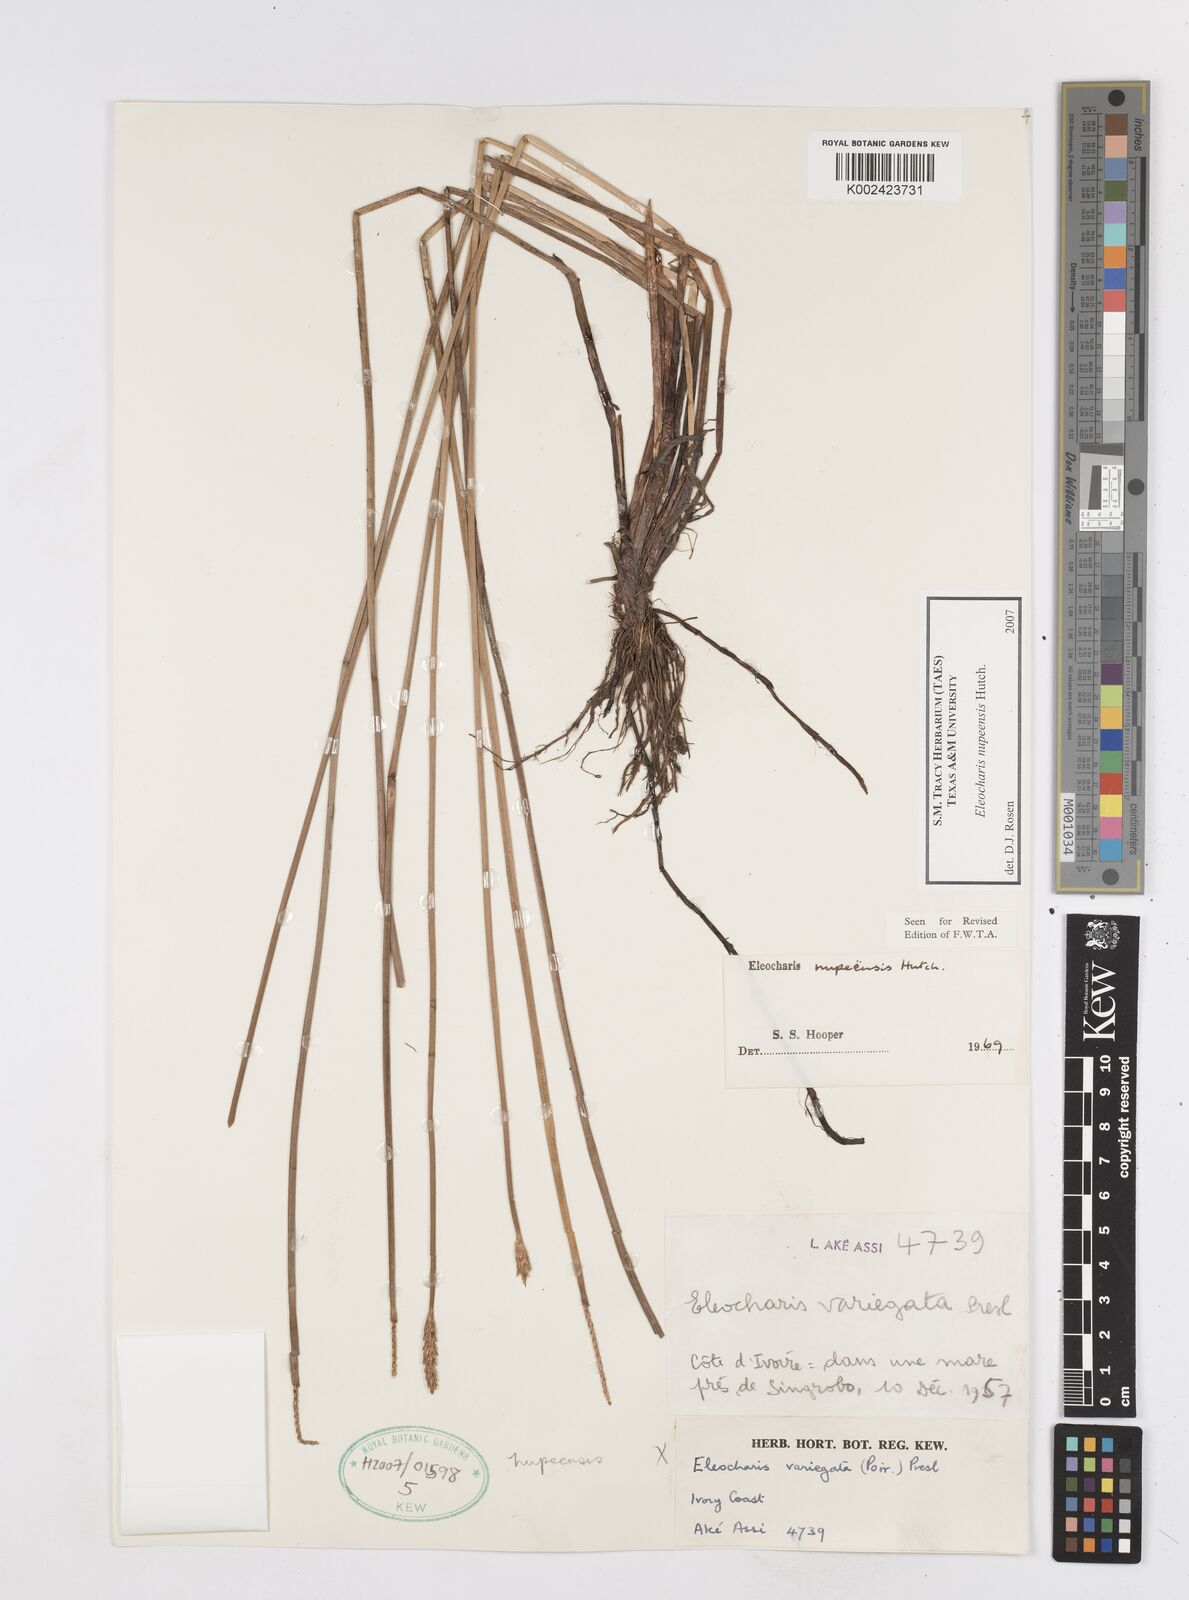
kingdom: Plantae
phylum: Tracheophyta
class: Liliopsida
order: Poales
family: Cyperaceae
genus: Eleocharis
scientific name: Eleocharis nupeensis
